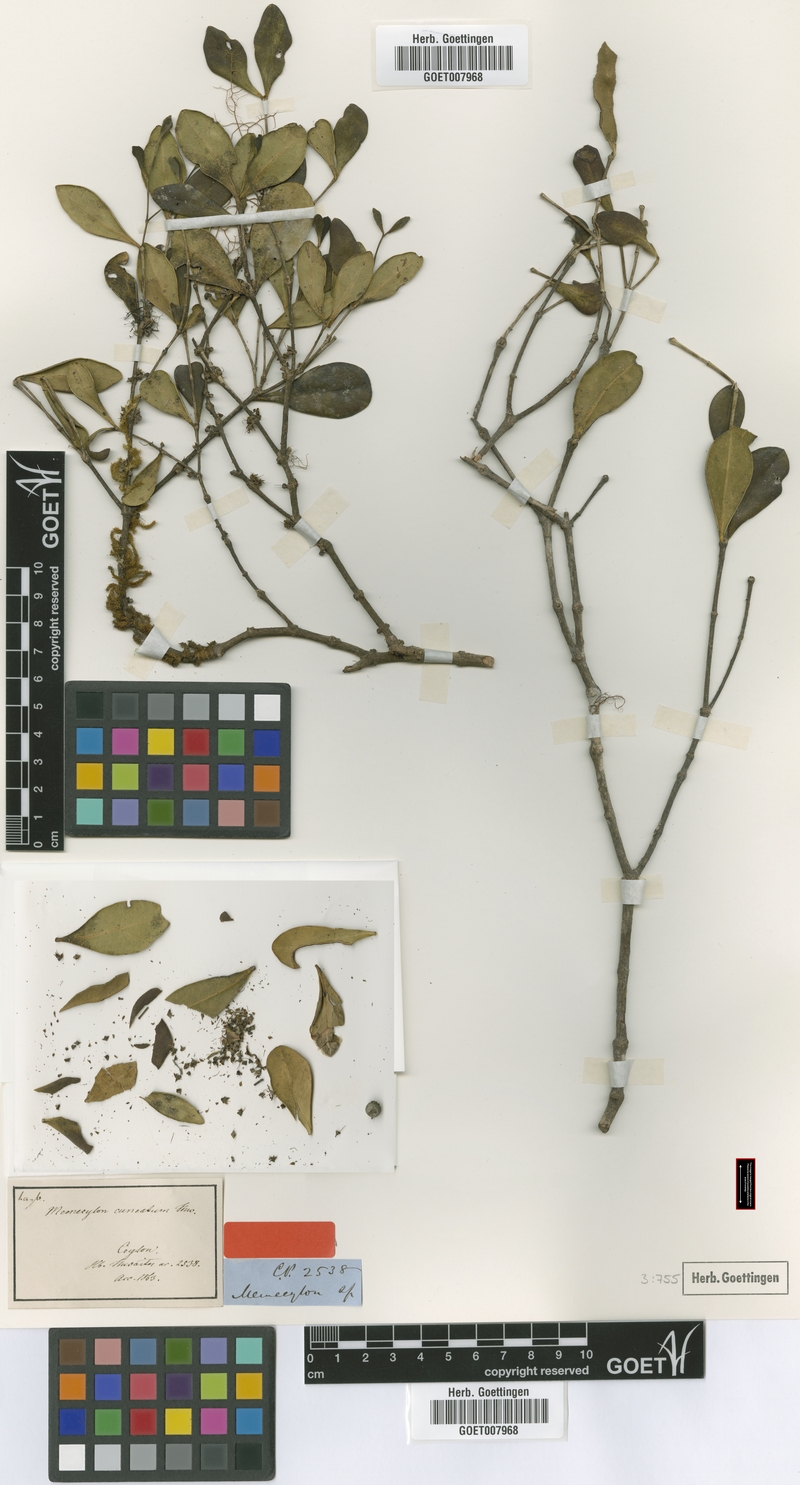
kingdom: Plantae
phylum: Tracheophyta
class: Magnoliopsida
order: Myrtales
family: Melastomataceae
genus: Memecylon
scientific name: Memecylon cuneatum
